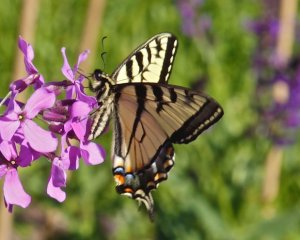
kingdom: Animalia
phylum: Arthropoda
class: Insecta
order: Lepidoptera
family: Papilionidae
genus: Pterourus
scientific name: Pterourus canadensis
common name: Canadian Tiger Swallowtail
